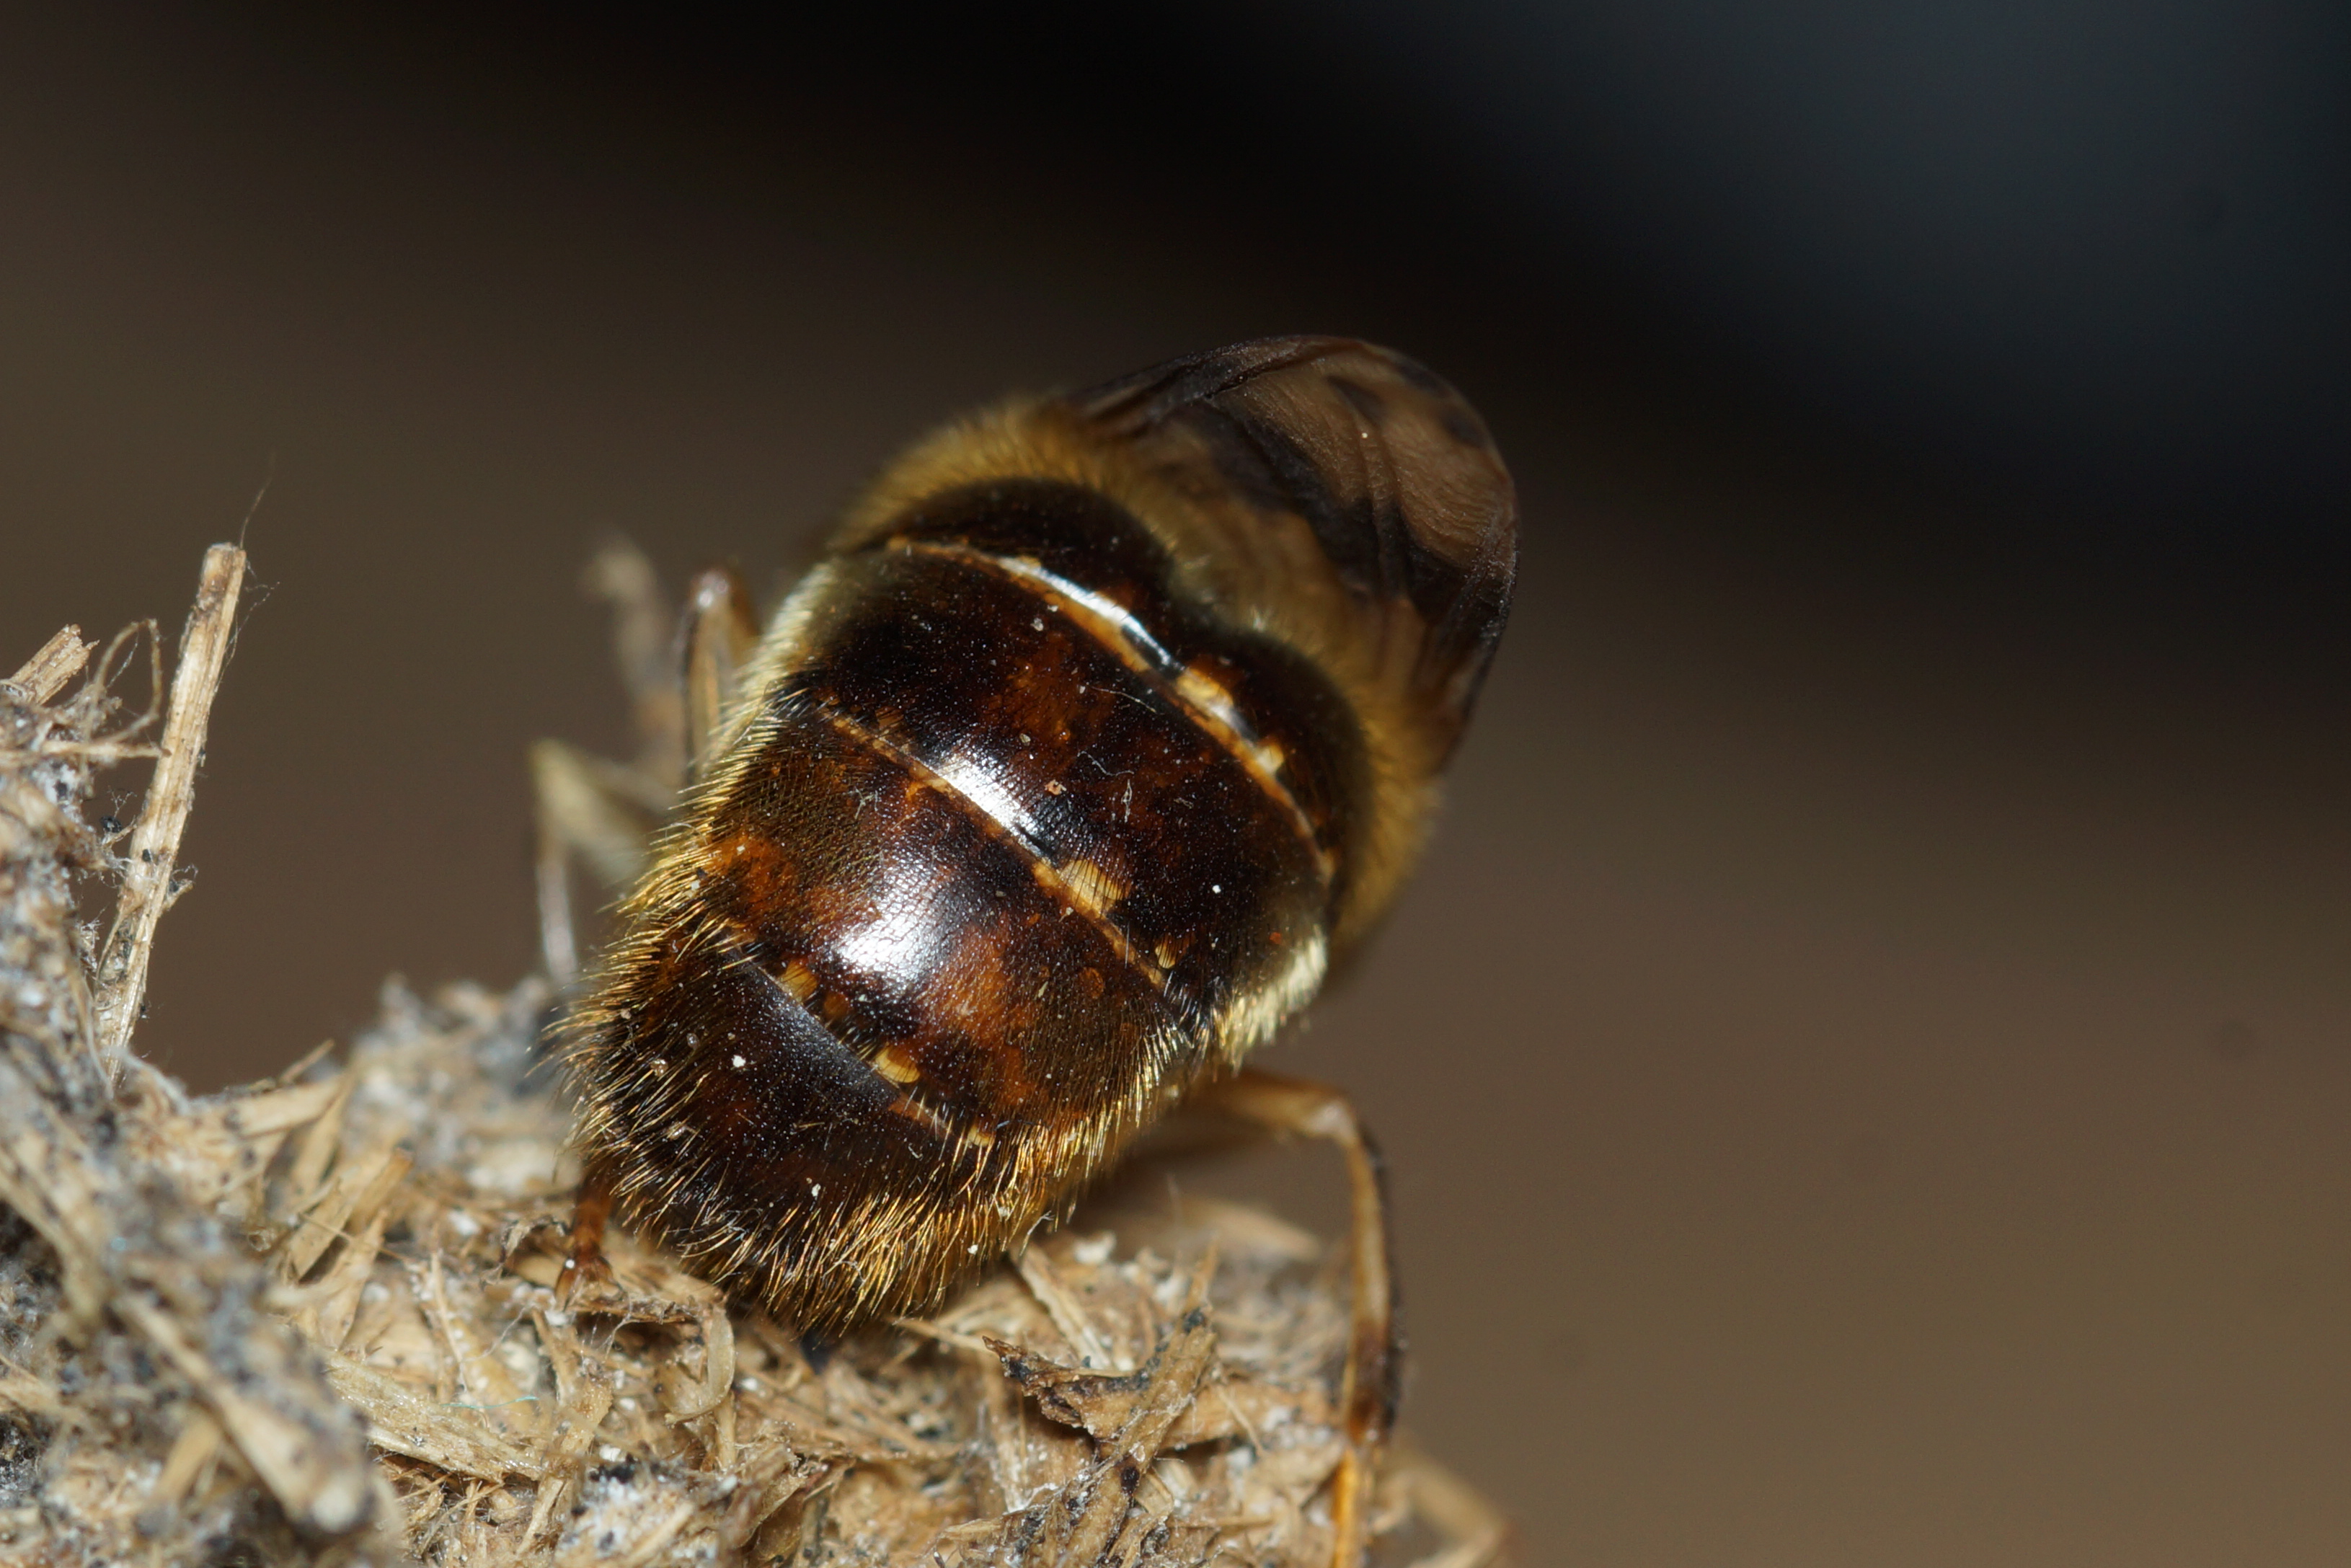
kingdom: Animalia
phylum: Arthropoda
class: Insecta
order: Diptera
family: Oestridae
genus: Gasterophilus
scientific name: Gasterophilus intestinalis
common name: Hestebremse
